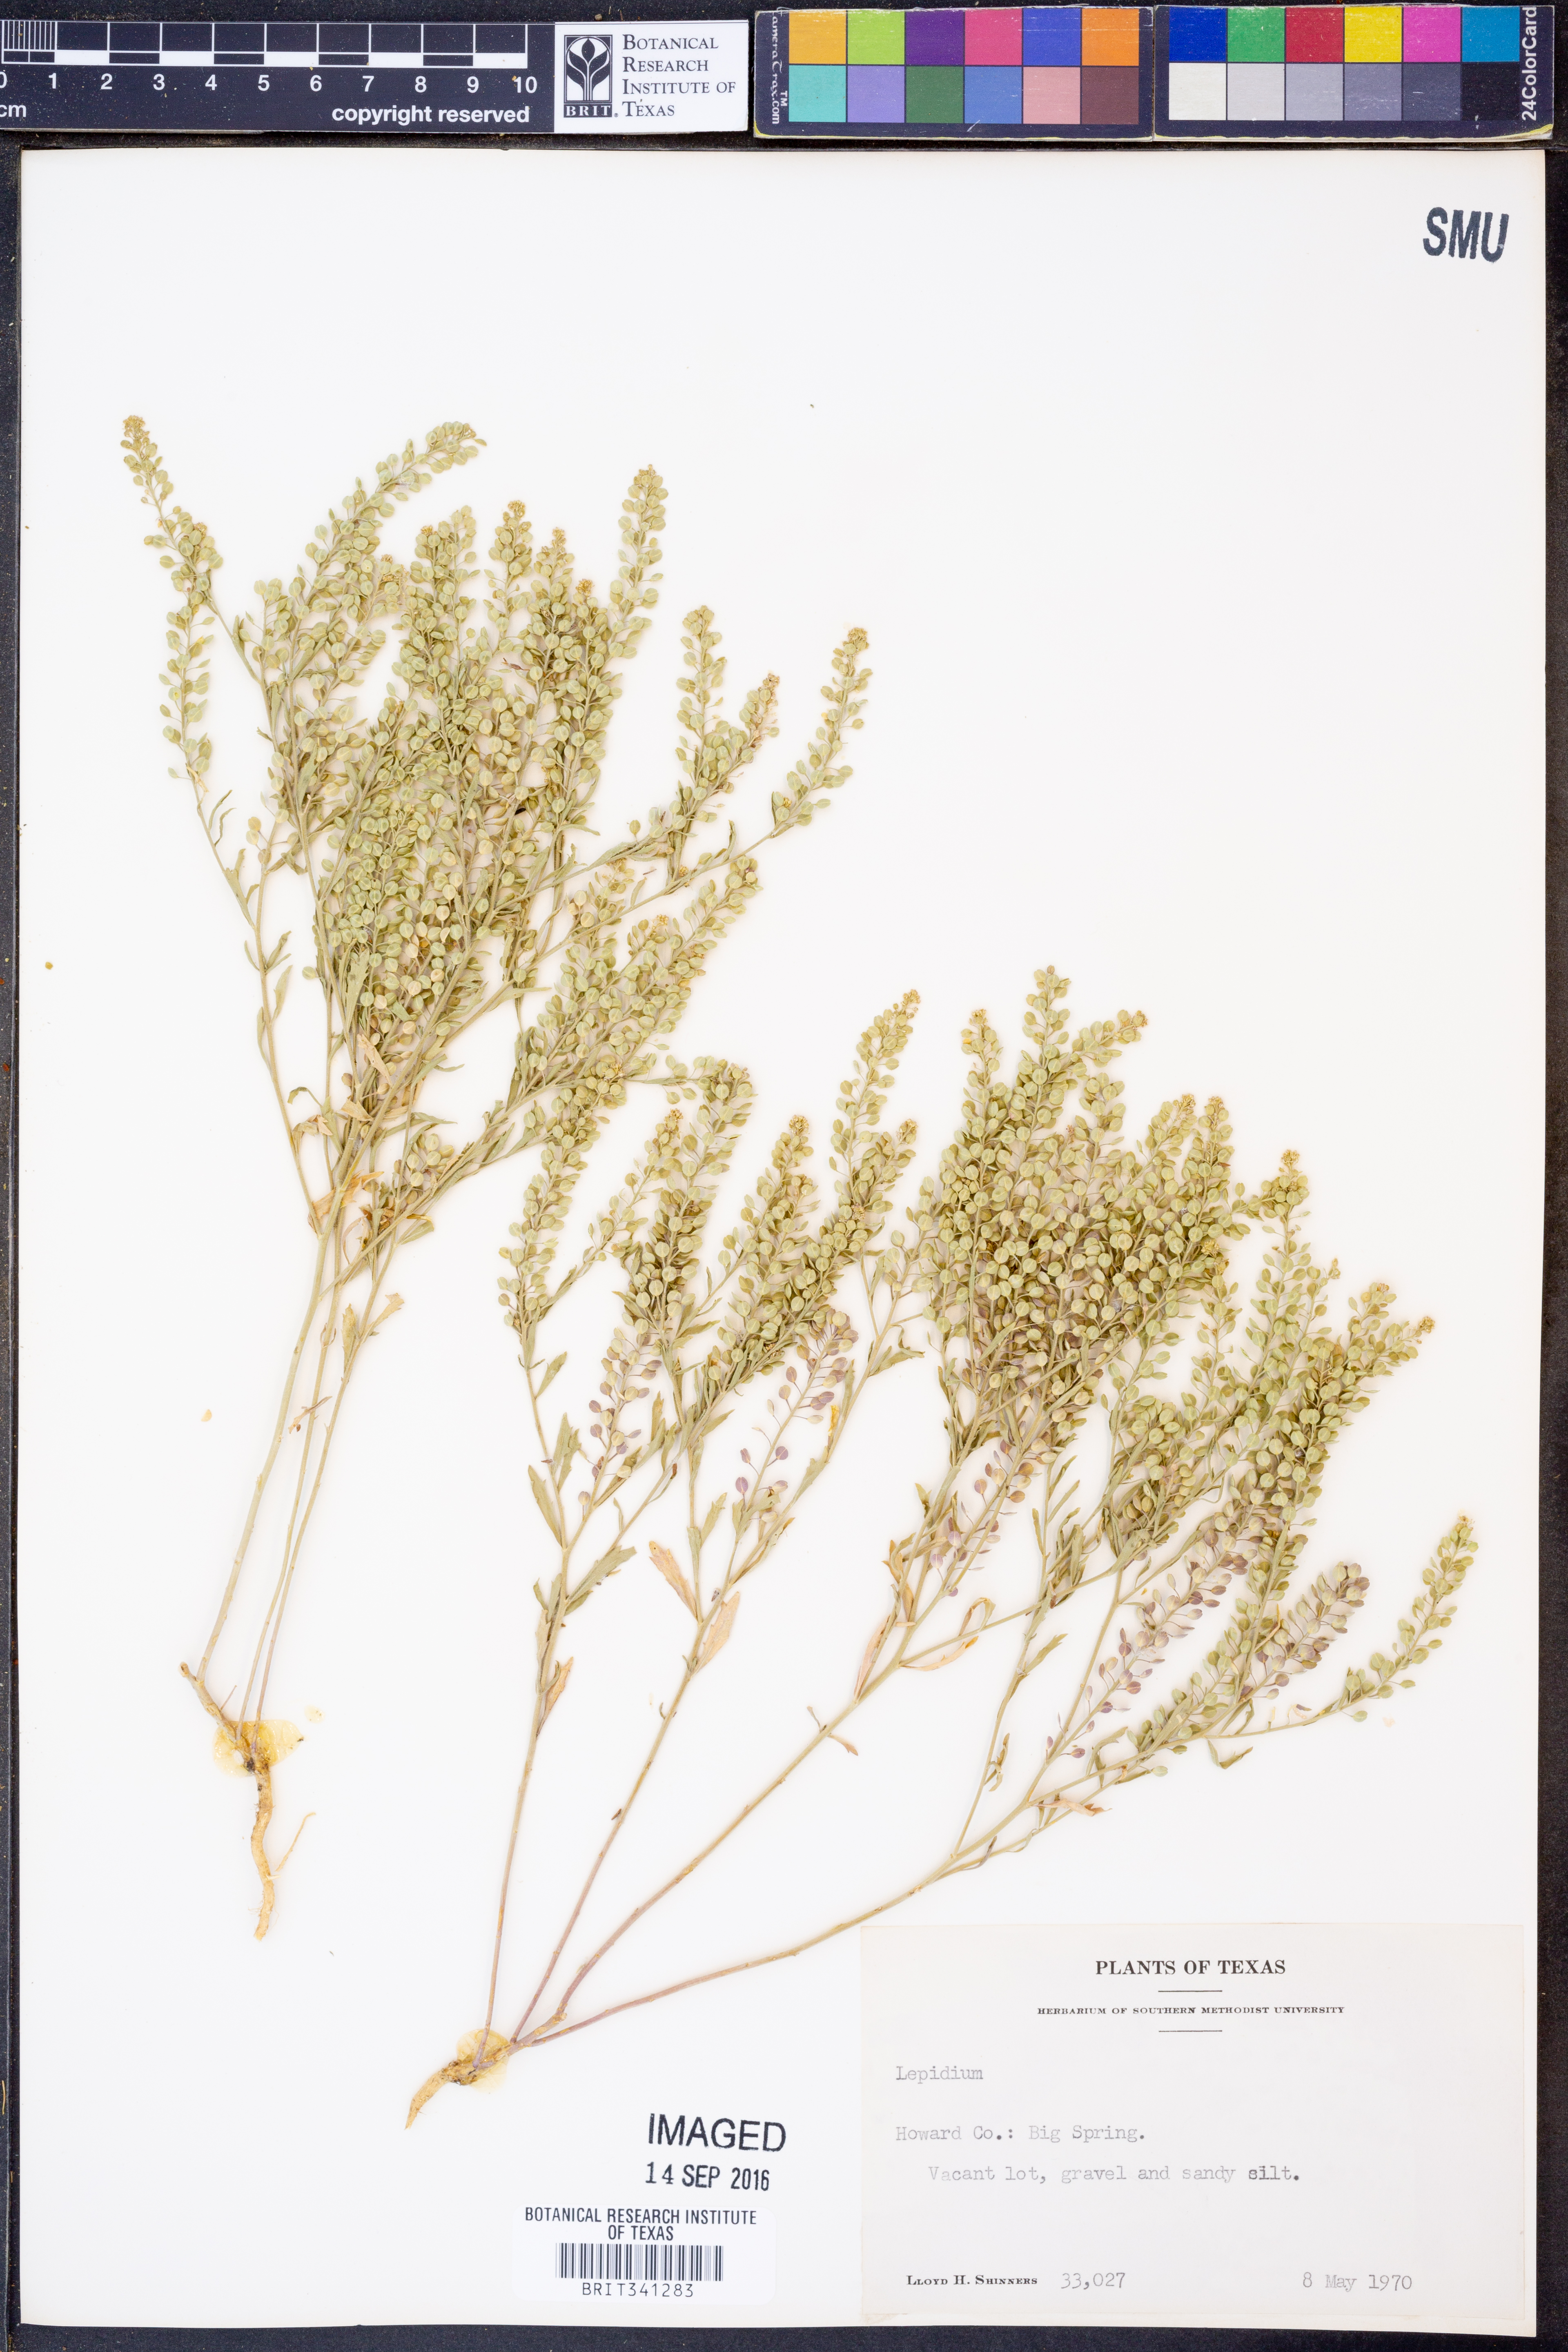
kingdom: Plantae
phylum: Tracheophyta
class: Magnoliopsida
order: Brassicales
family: Brassicaceae
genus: Lepidium
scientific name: Lepidium
